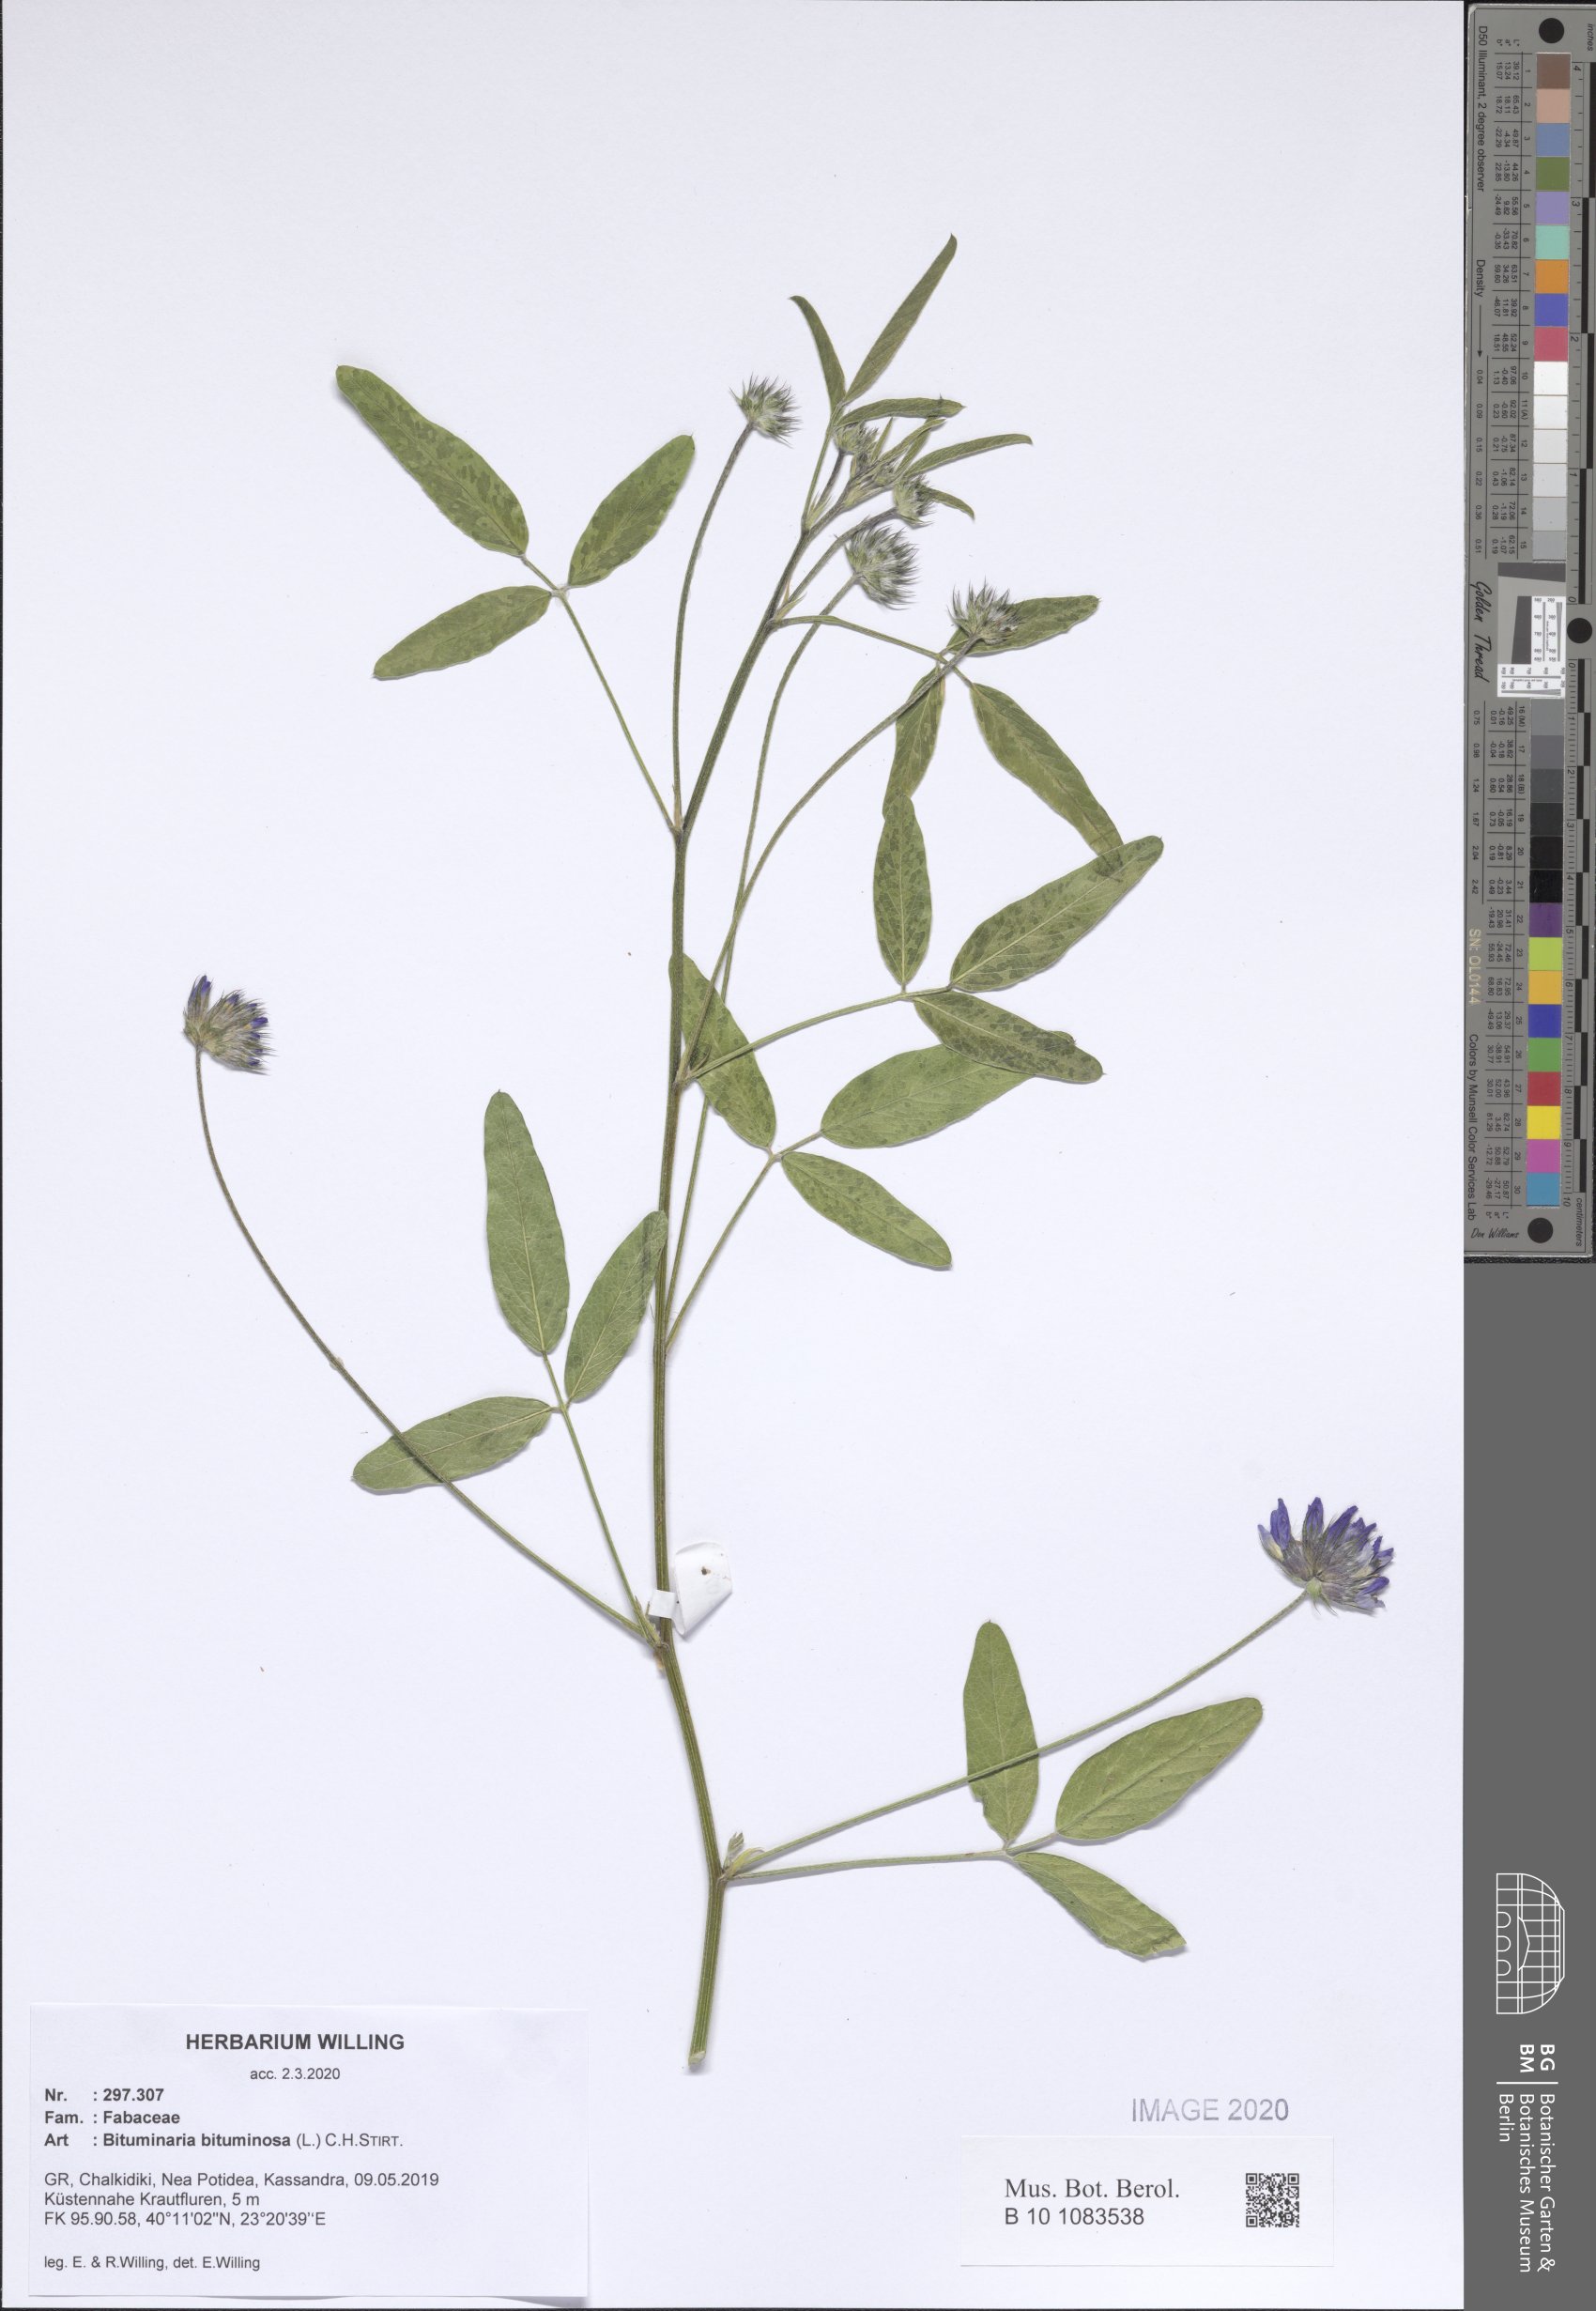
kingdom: Plantae
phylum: Tracheophyta
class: Magnoliopsida
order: Fabales
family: Fabaceae
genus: Bituminaria
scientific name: Bituminaria bituminosa
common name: Arabian pea
